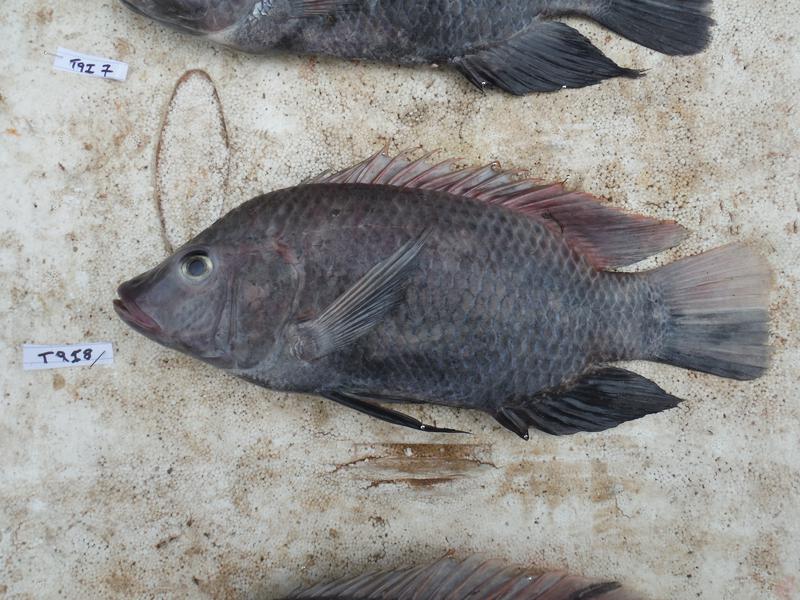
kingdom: Animalia
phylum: Chordata
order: Perciformes
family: Cichlidae
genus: Oreochromis
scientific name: Oreochromis urolepis
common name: Wami tilapia
